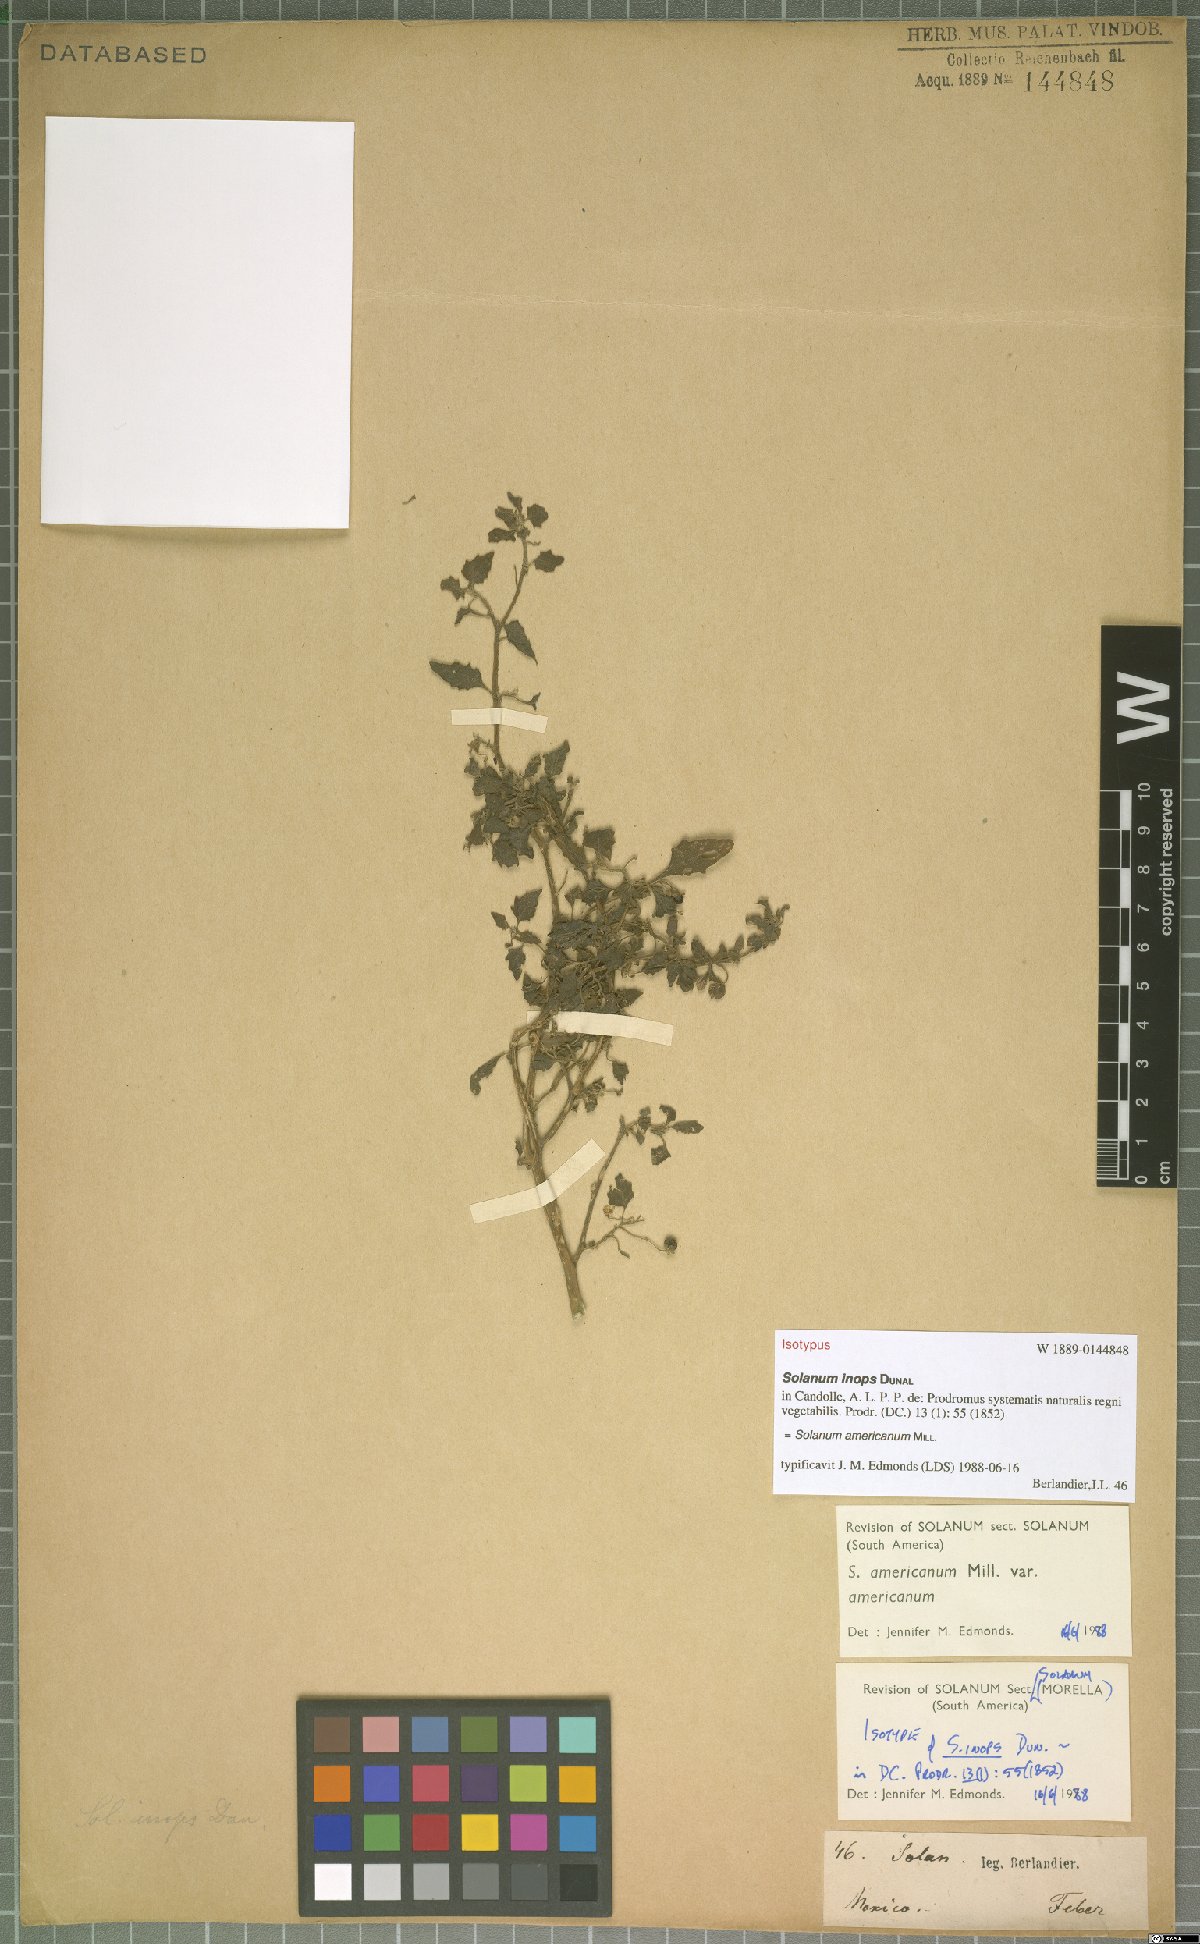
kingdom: Plantae
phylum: Tracheophyta
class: Magnoliopsida
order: Solanales
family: Solanaceae
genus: Solanum
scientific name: Solanum americanum
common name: American black nightshade
